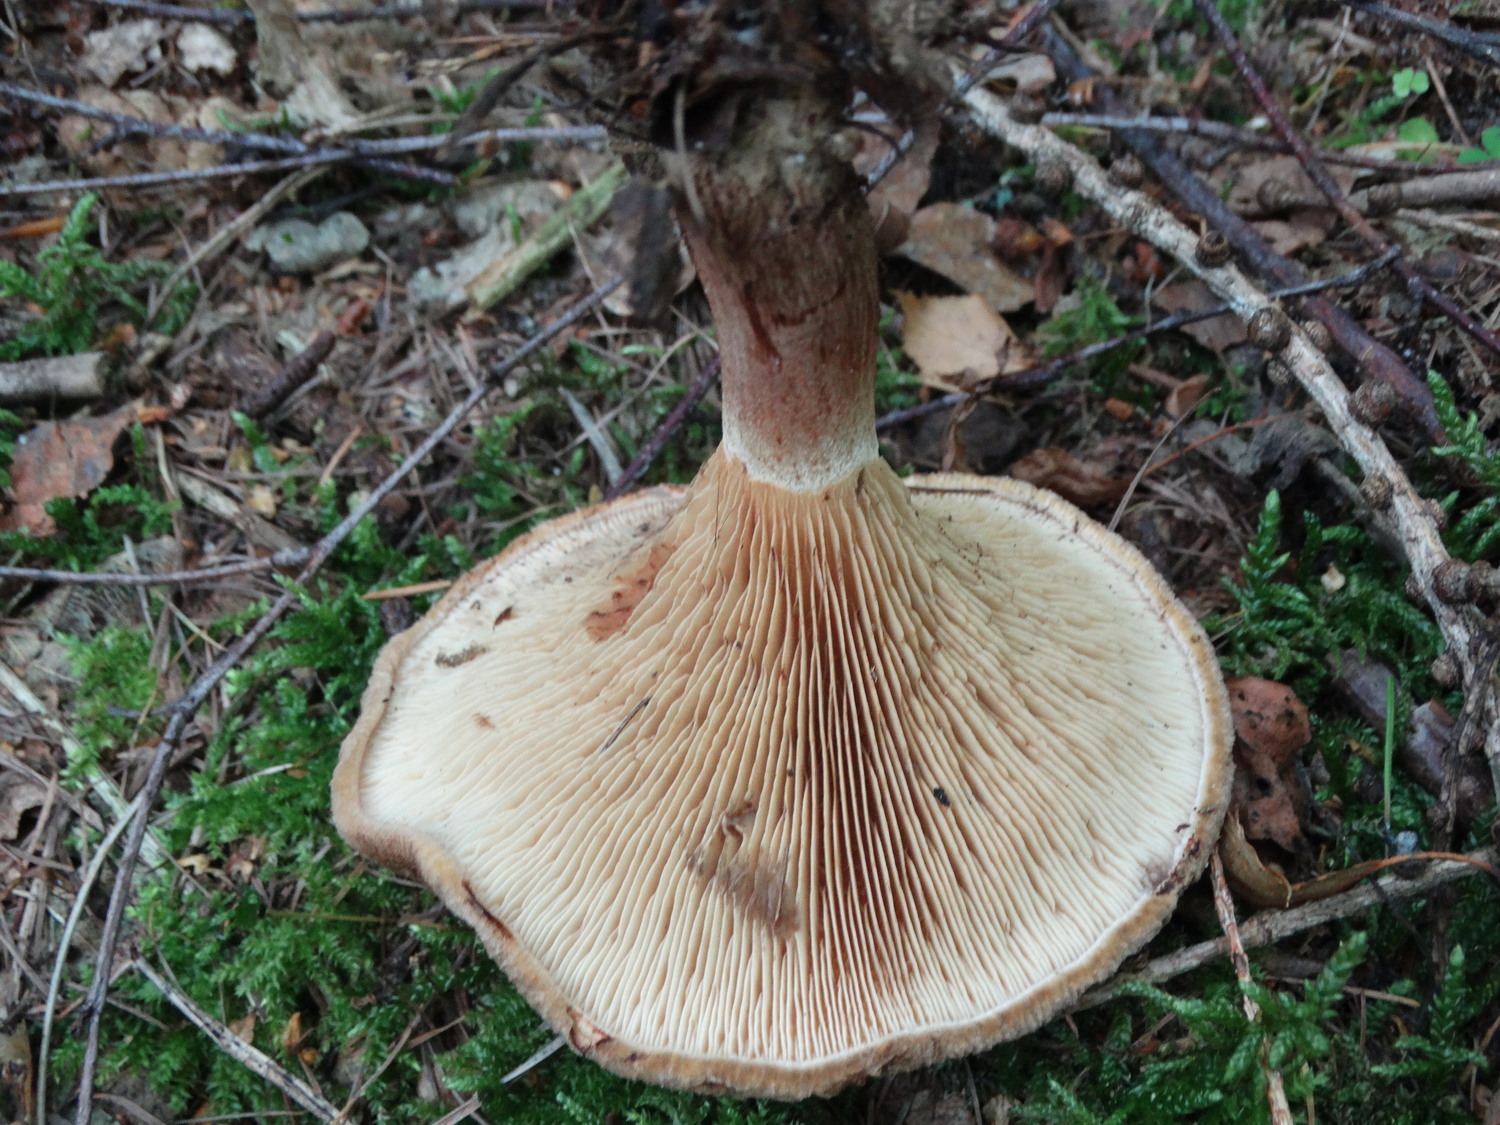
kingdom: Fungi
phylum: Basidiomycota
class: Agaricomycetes
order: Boletales
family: Paxillaceae
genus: Paxillus
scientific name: Paxillus involutus
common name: almindelig netbladhat
